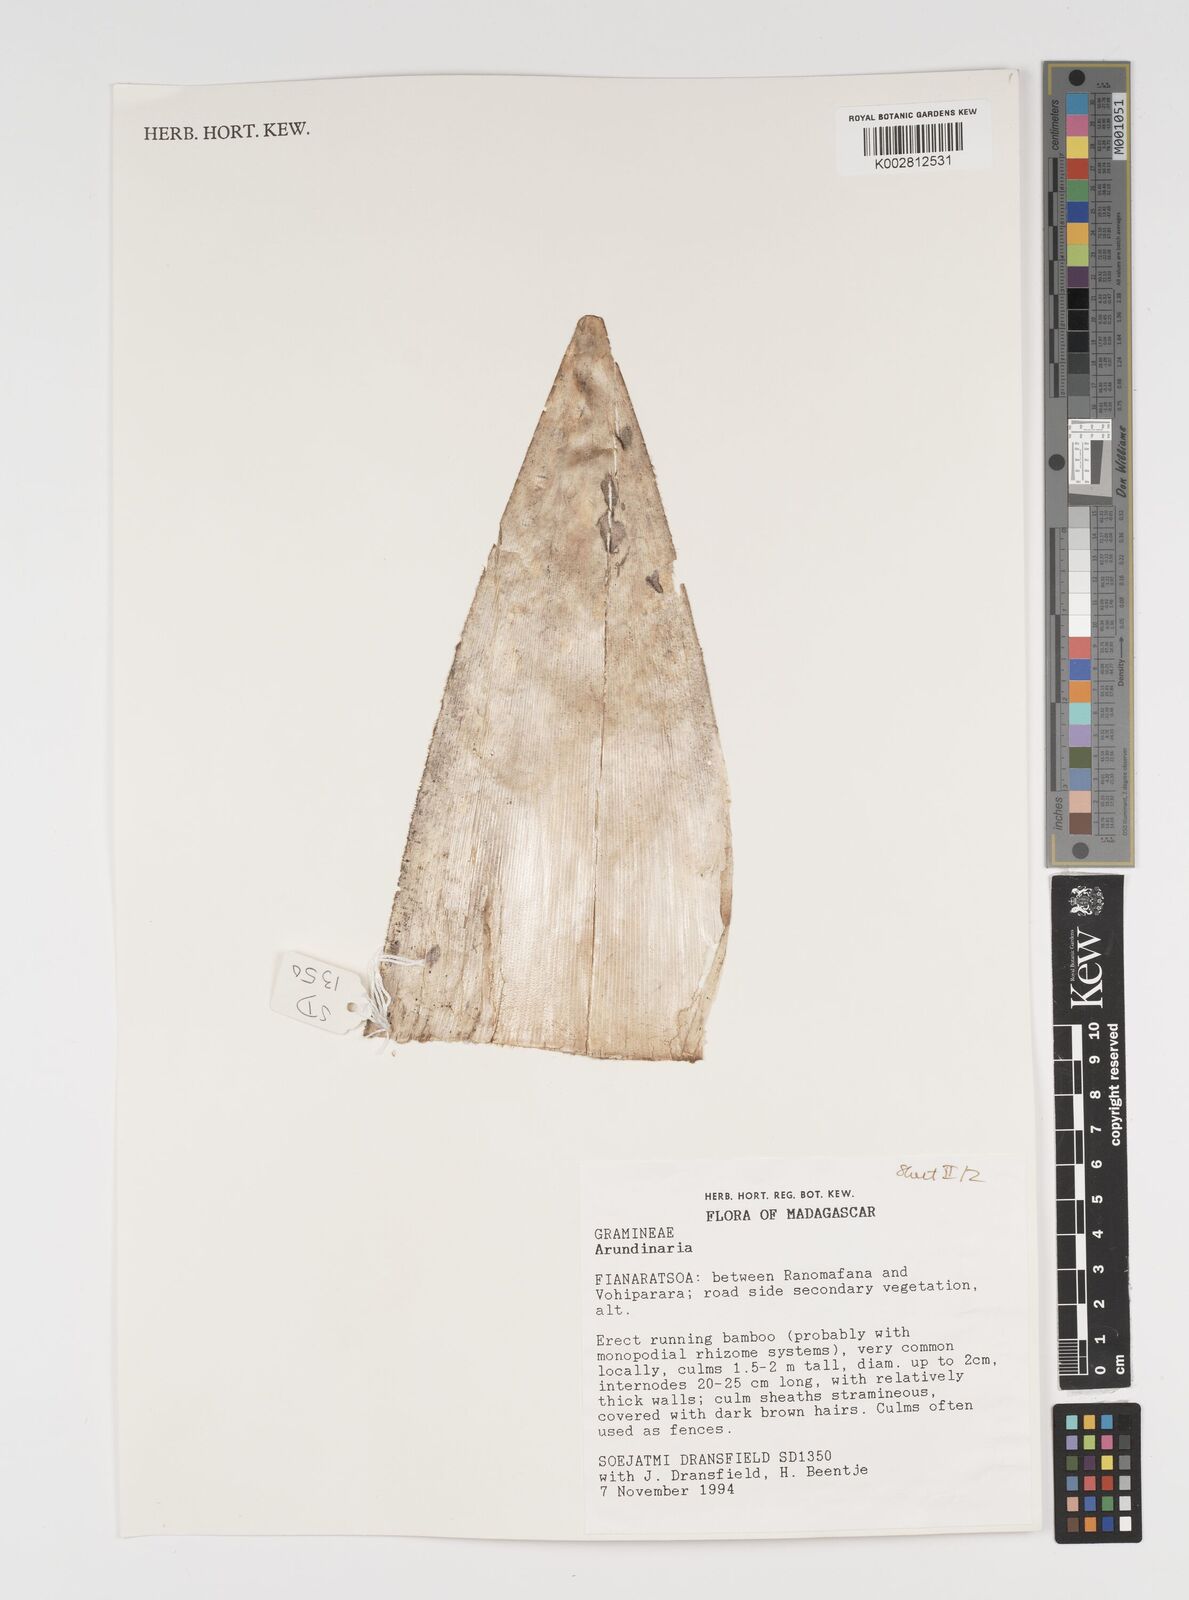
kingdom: Plantae
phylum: Tracheophyta
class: Liliopsida
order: Poales
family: Poaceae
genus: Arundinaria
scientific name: Arundinaria
